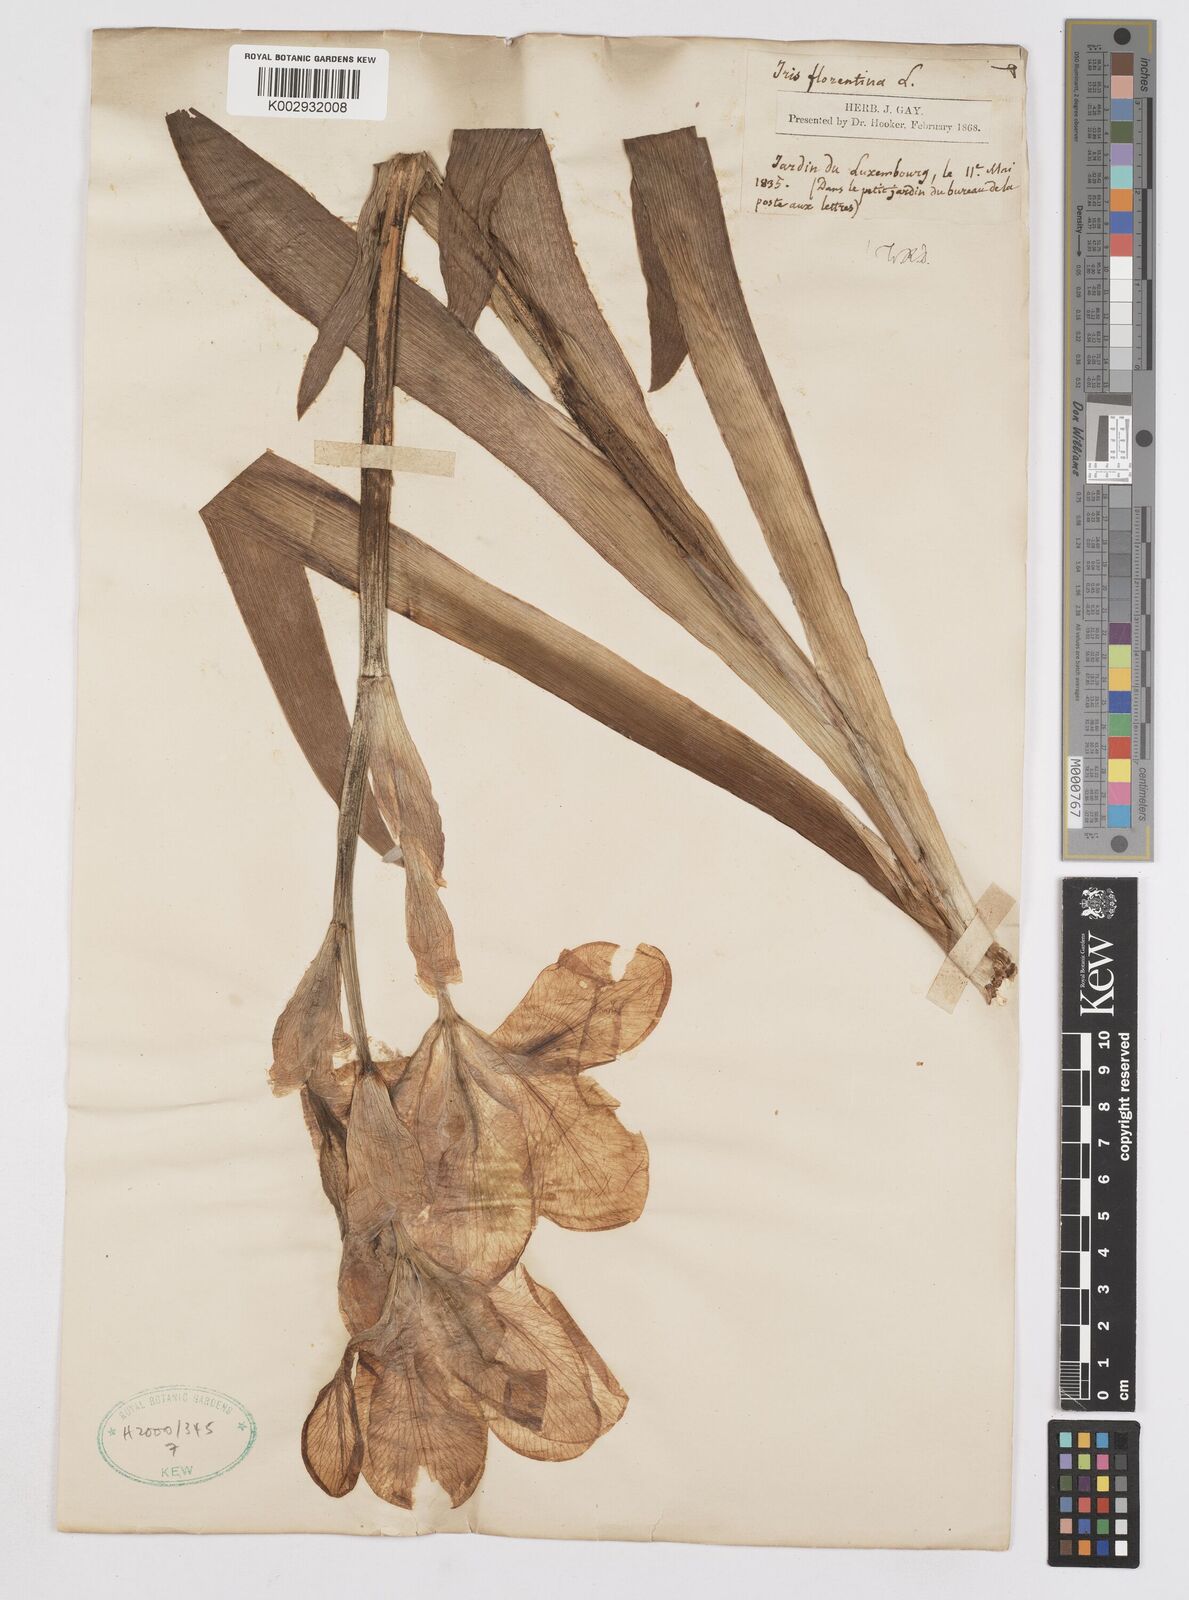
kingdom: Plantae
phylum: Tracheophyta
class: Liliopsida
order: Asparagales
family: Iridaceae
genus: Iris
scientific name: Iris germanica
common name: German iris
